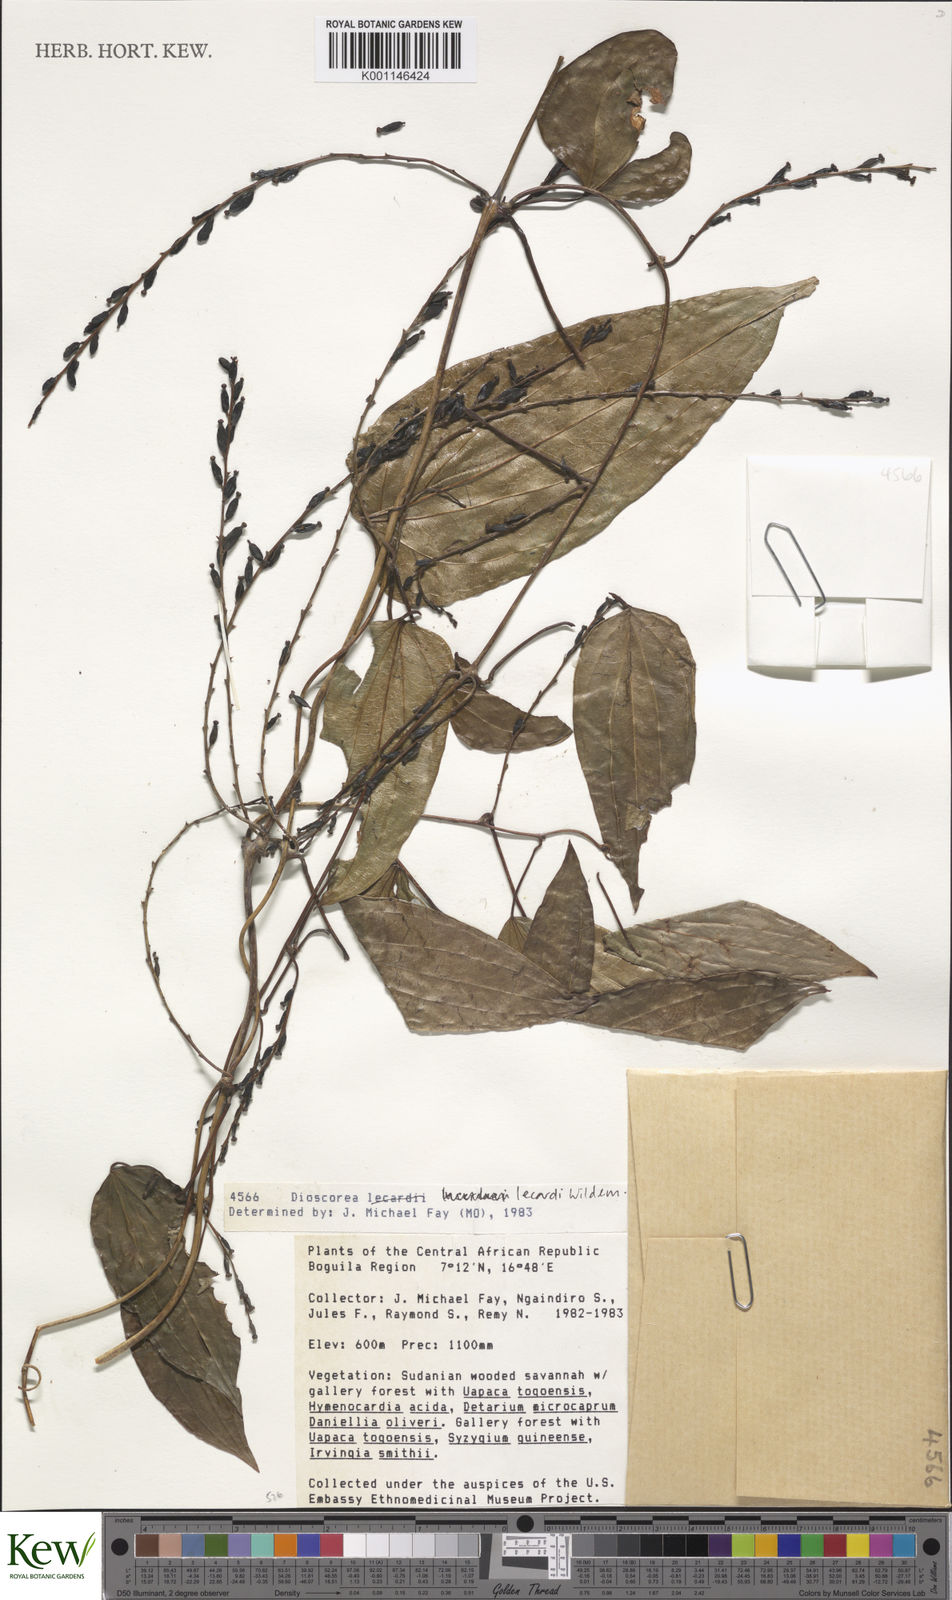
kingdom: Plantae
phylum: Tracheophyta
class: Liliopsida
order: Dioscoreales
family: Dioscoreaceae
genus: Dioscorea
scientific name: Dioscorea sagittifolia
